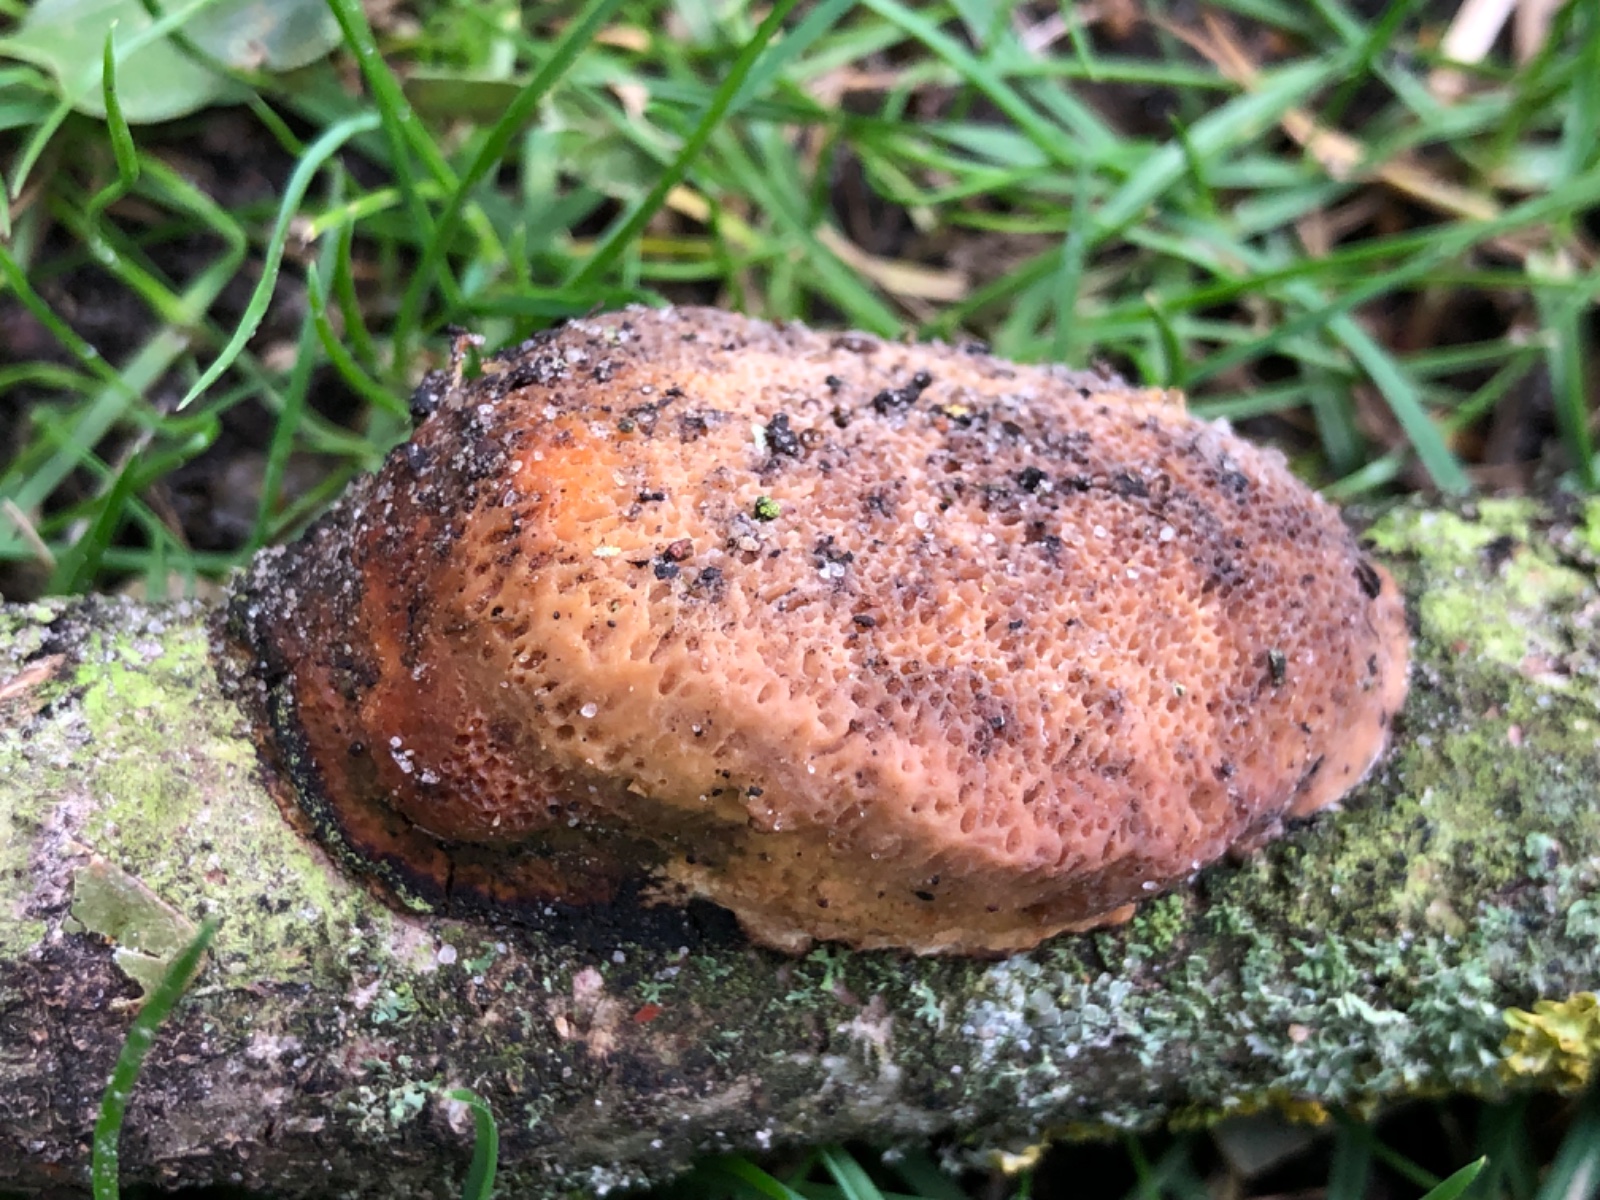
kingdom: Fungi
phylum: Basidiomycota
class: Agaricomycetes
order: Polyporales
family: Polyporaceae
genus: Szczepkamyces
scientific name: Szczepkamyces campestris
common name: hasselporesvamp
